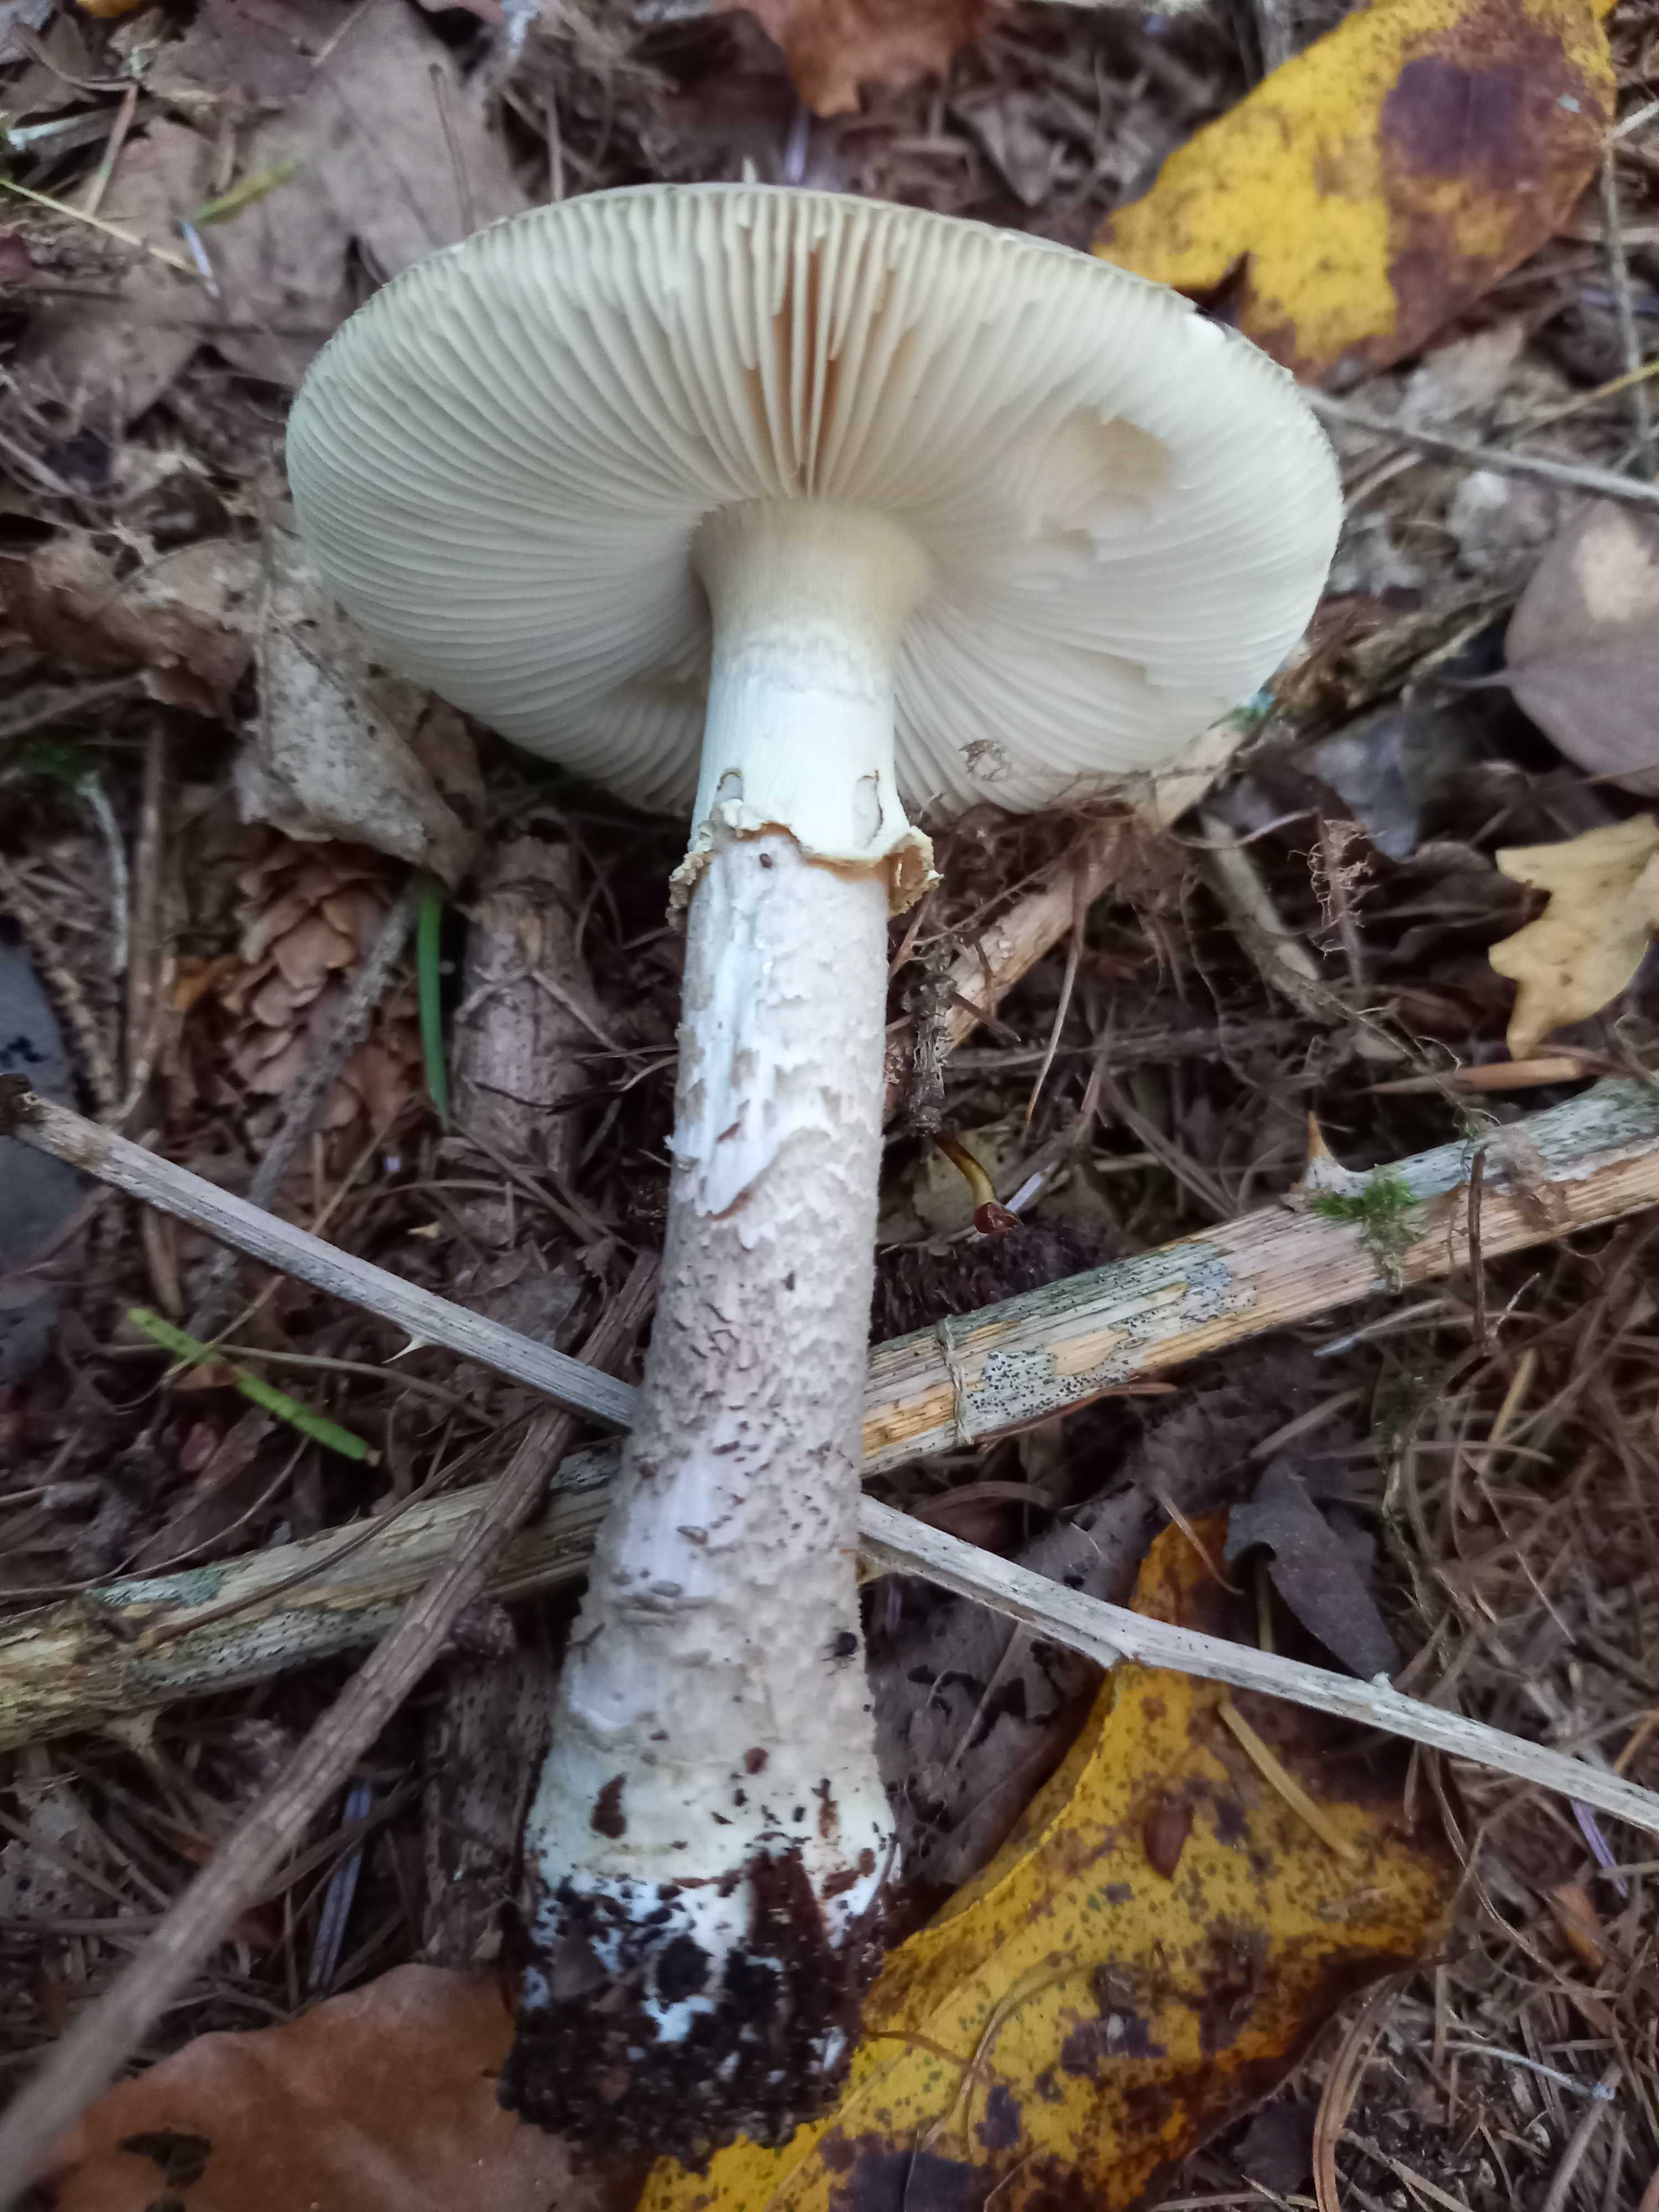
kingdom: Fungi
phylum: Basidiomycota
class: Agaricomycetes
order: Agaricales
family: Amanitaceae
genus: Amanita
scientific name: Amanita
